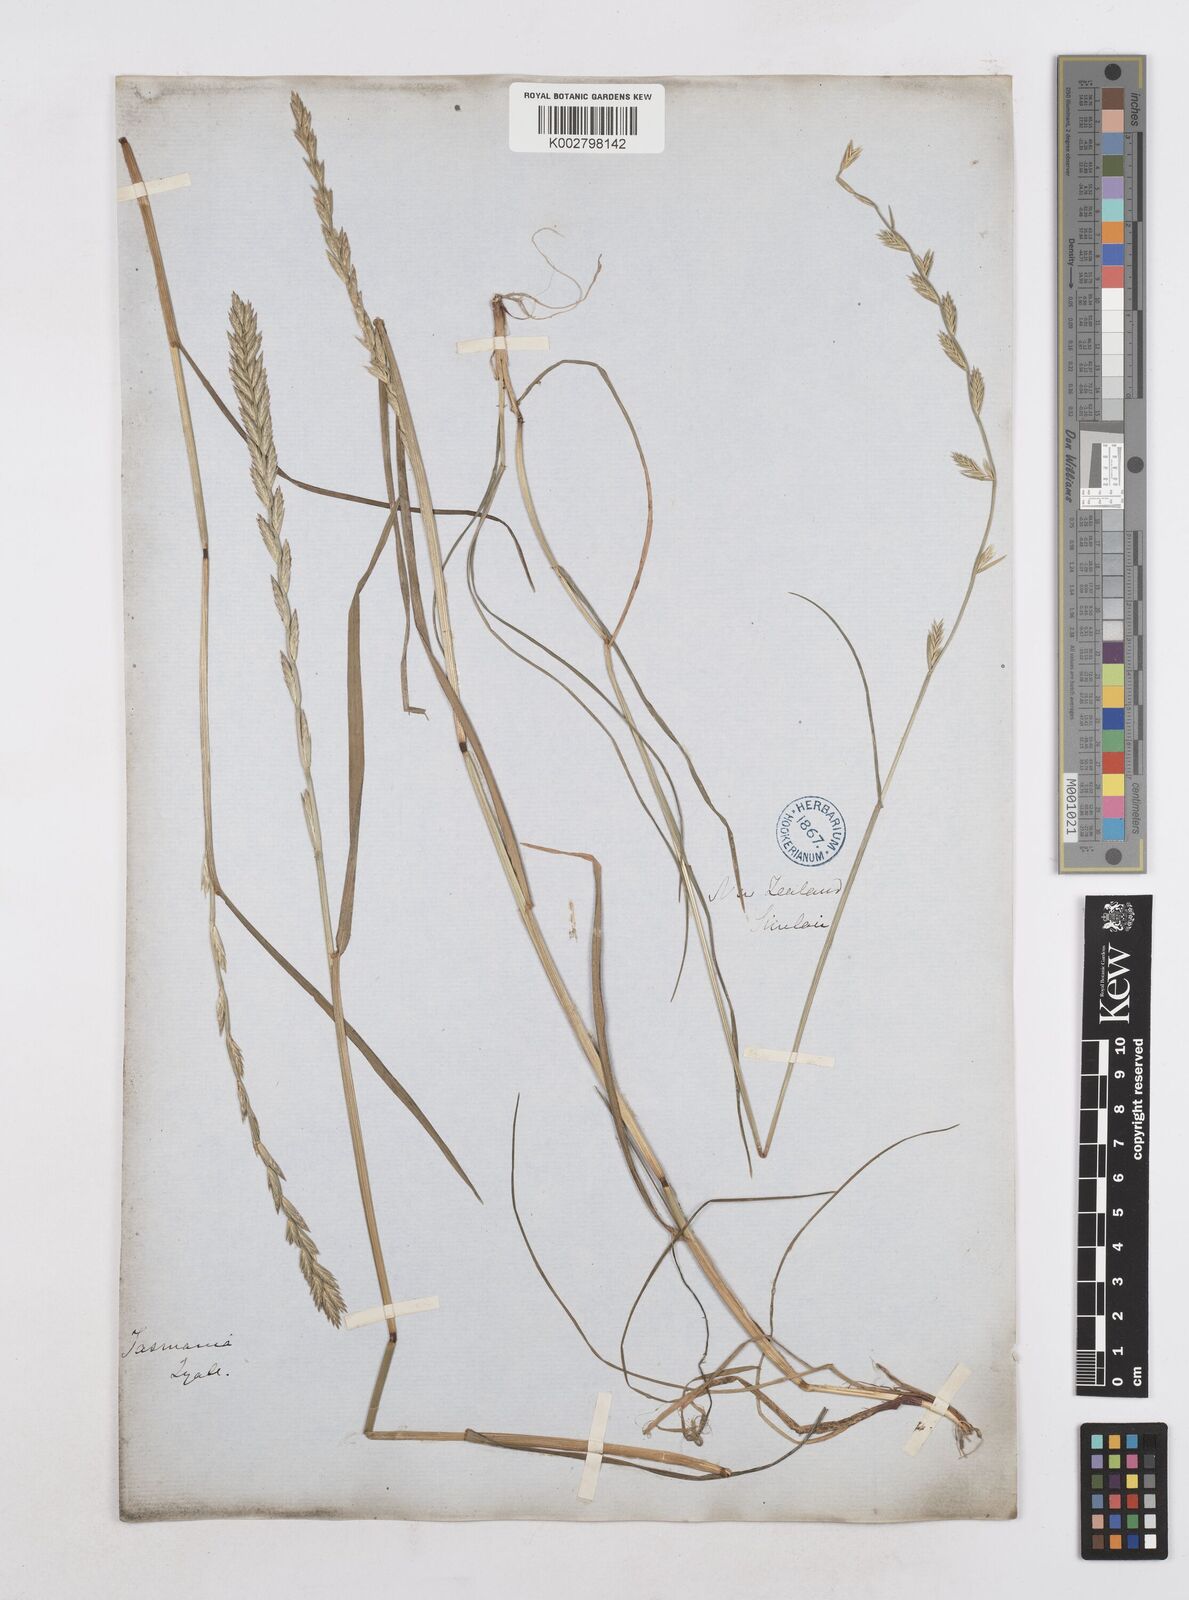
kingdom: Plantae
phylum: Tracheophyta
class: Liliopsida
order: Poales
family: Poaceae
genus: Lolium
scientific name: Lolium perenne
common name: Perennial ryegrass
